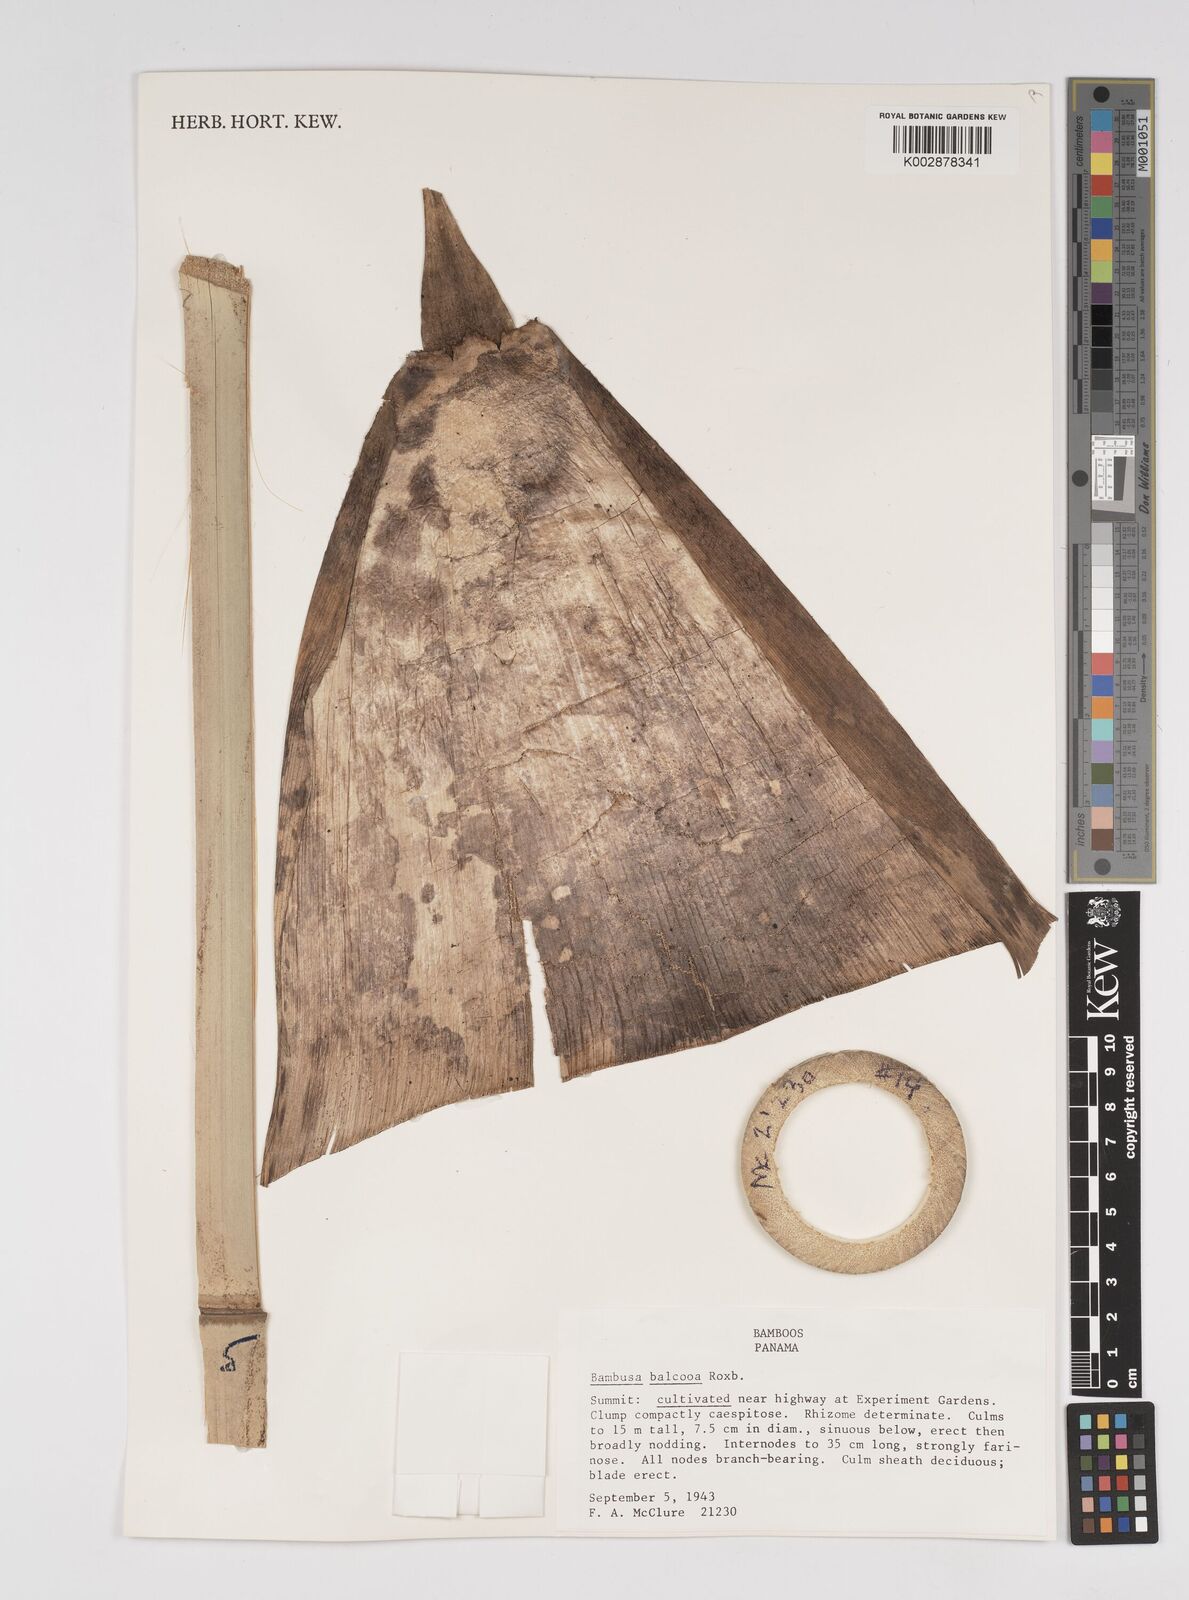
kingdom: Plantae
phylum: Tracheophyta
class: Liliopsida
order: Poales
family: Poaceae
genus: Bambusa
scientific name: Bambusa balcooa
